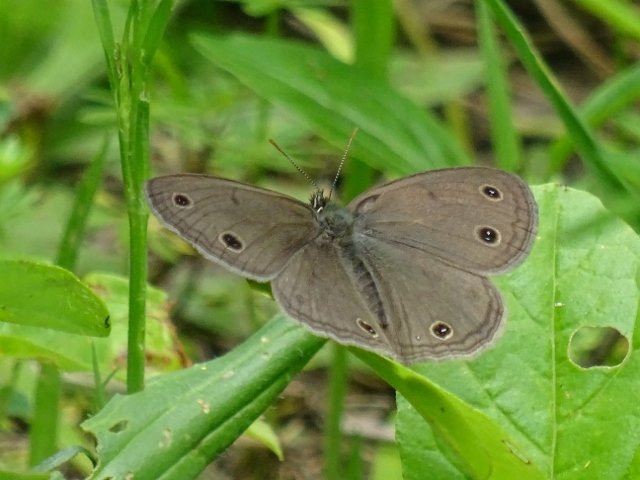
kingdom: Animalia
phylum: Arthropoda
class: Insecta
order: Lepidoptera
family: Nymphalidae
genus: Euptychia
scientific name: Euptychia cymela
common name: Little Wood Satyr
